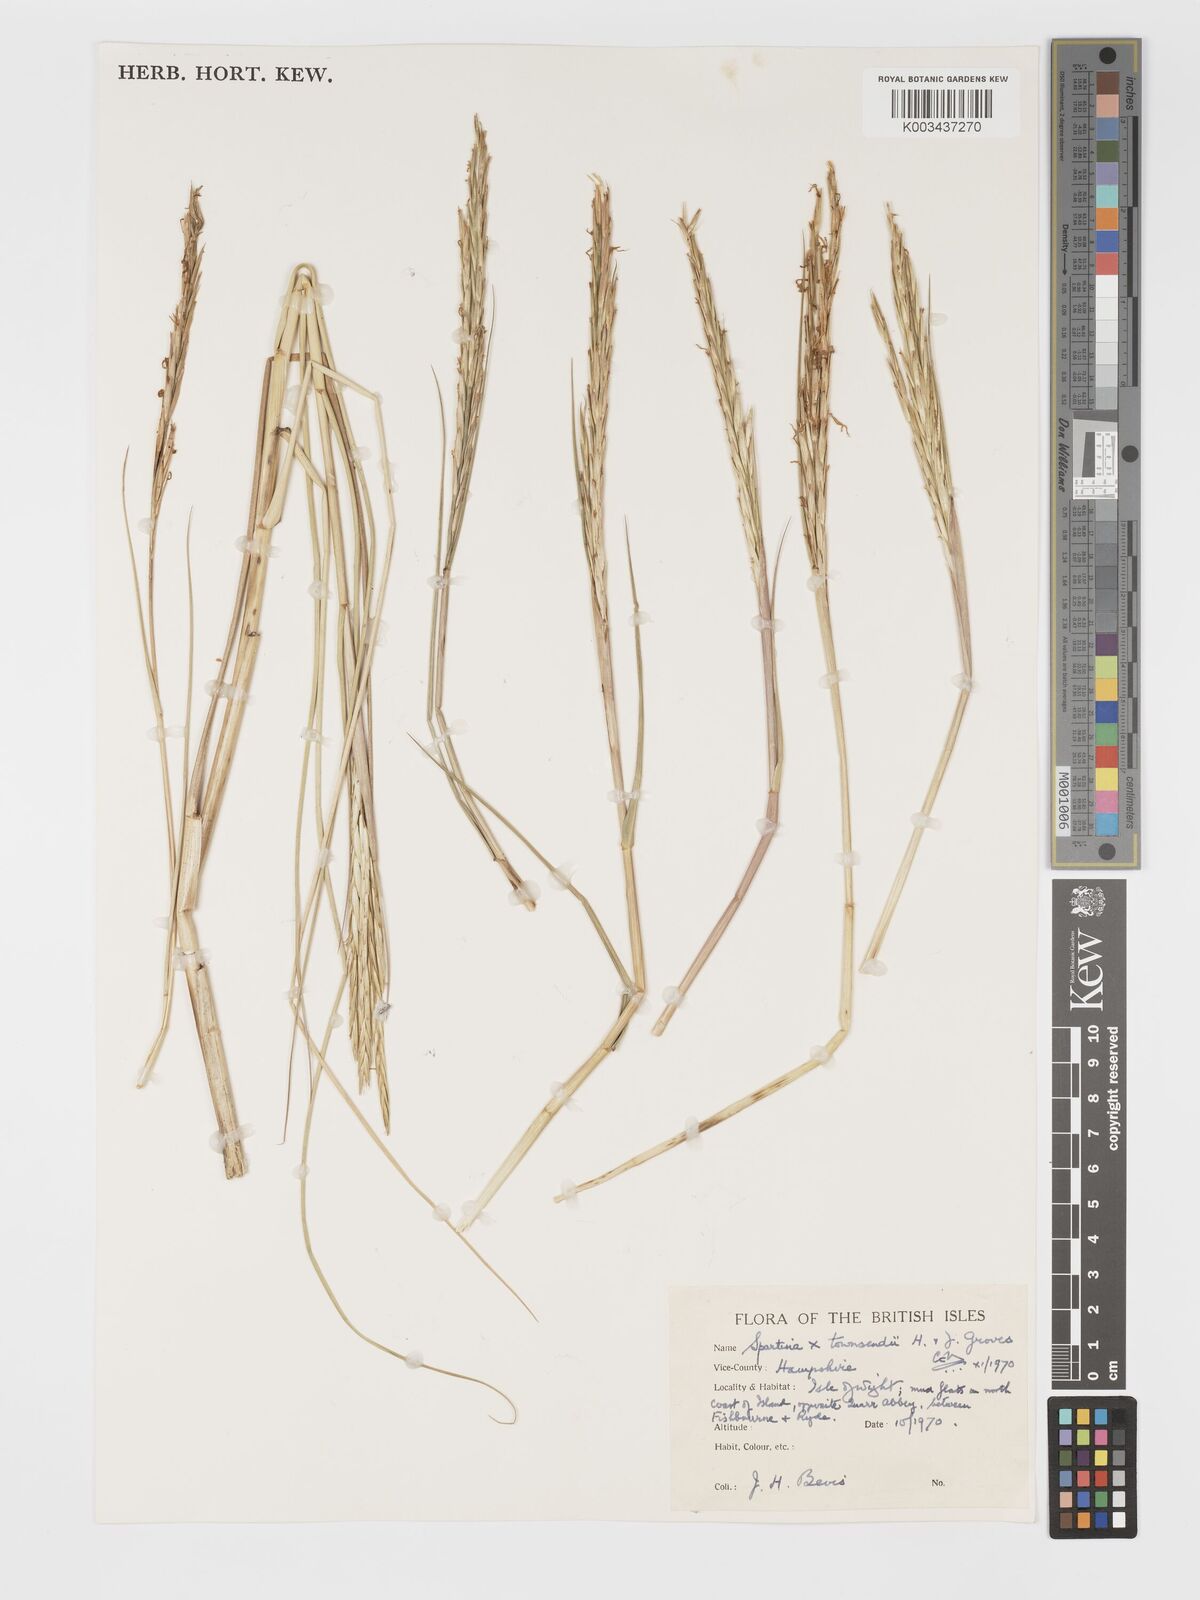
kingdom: Plantae
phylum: Tracheophyta
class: Liliopsida
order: Poales
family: Poaceae
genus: Sporobolus
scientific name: Sporobolus townsendii
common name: Townsend's cordgrass
